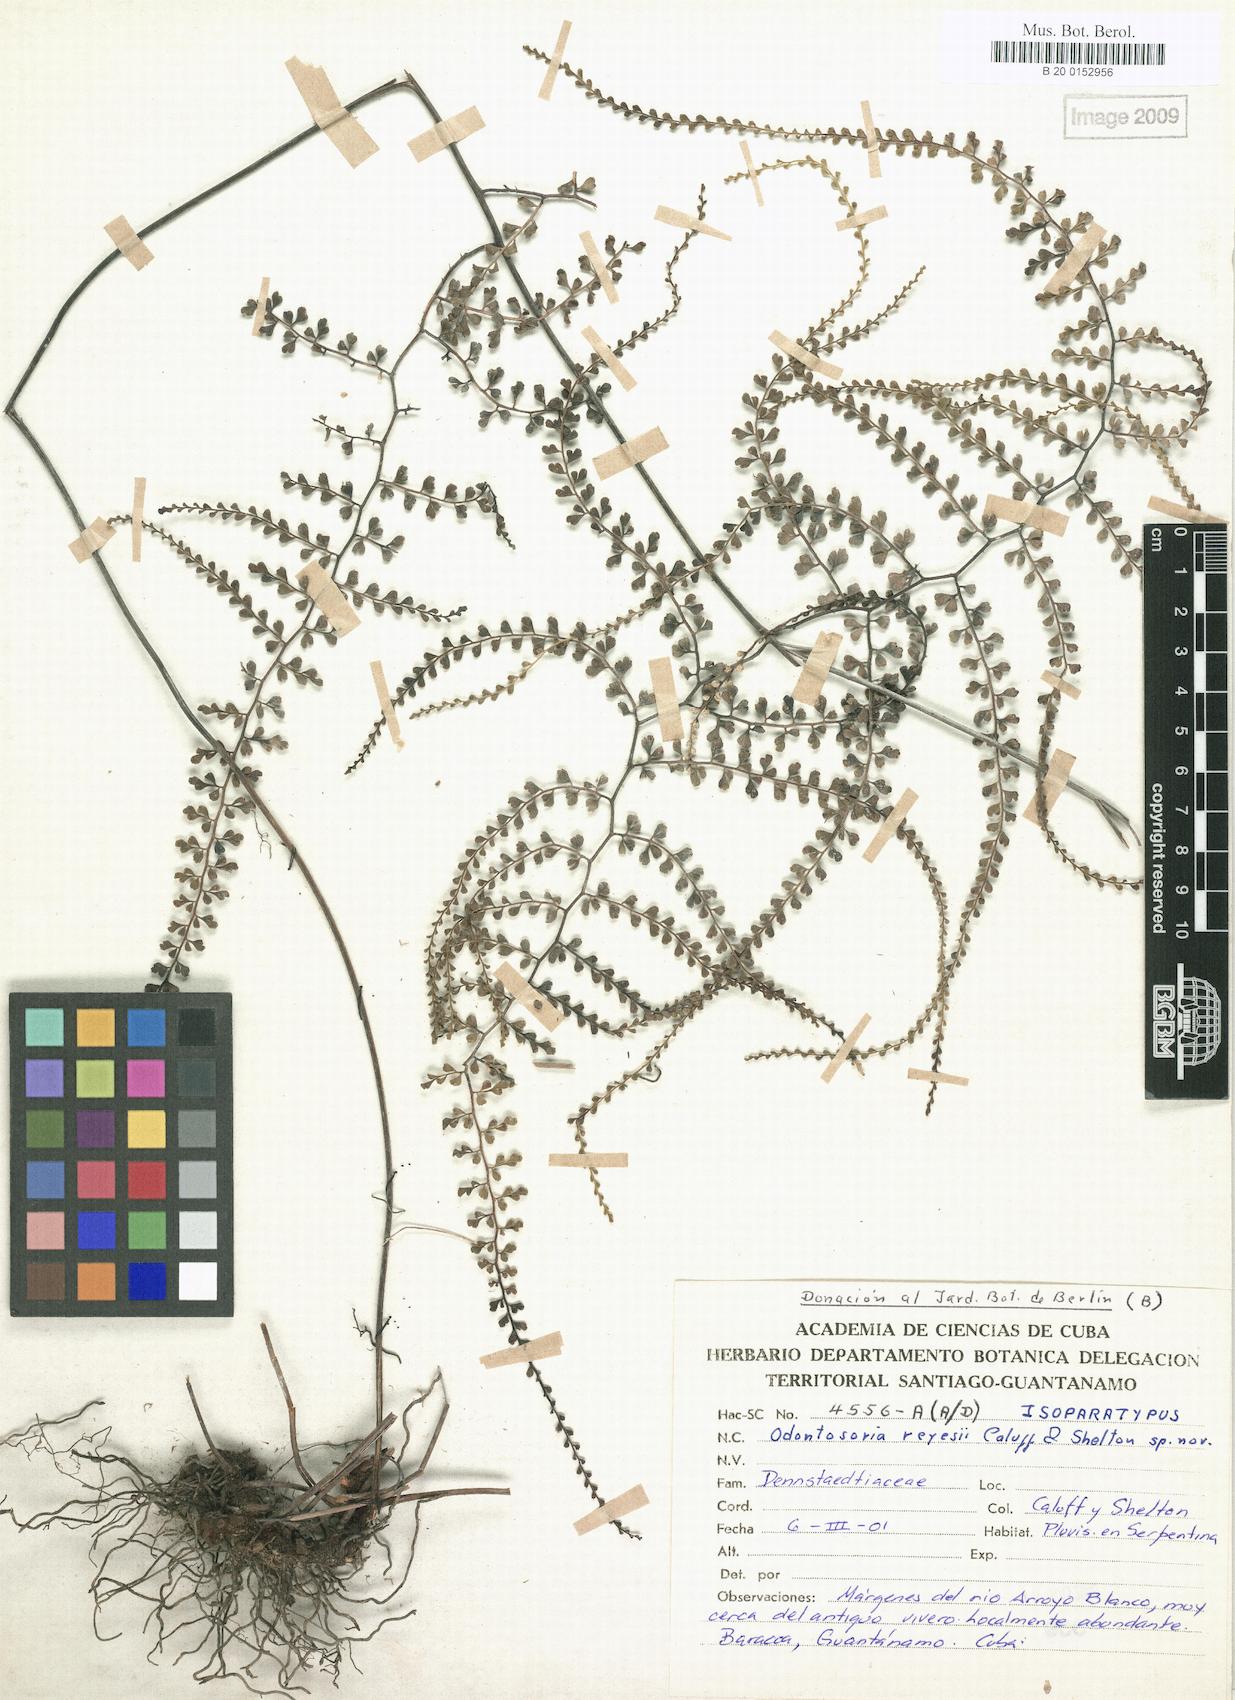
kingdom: Plantae
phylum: Tracheophyta
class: Polypodiopsida
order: Polypodiales
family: Lindsaeaceae
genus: Odontosoria
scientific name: Odontosoria reyesii
